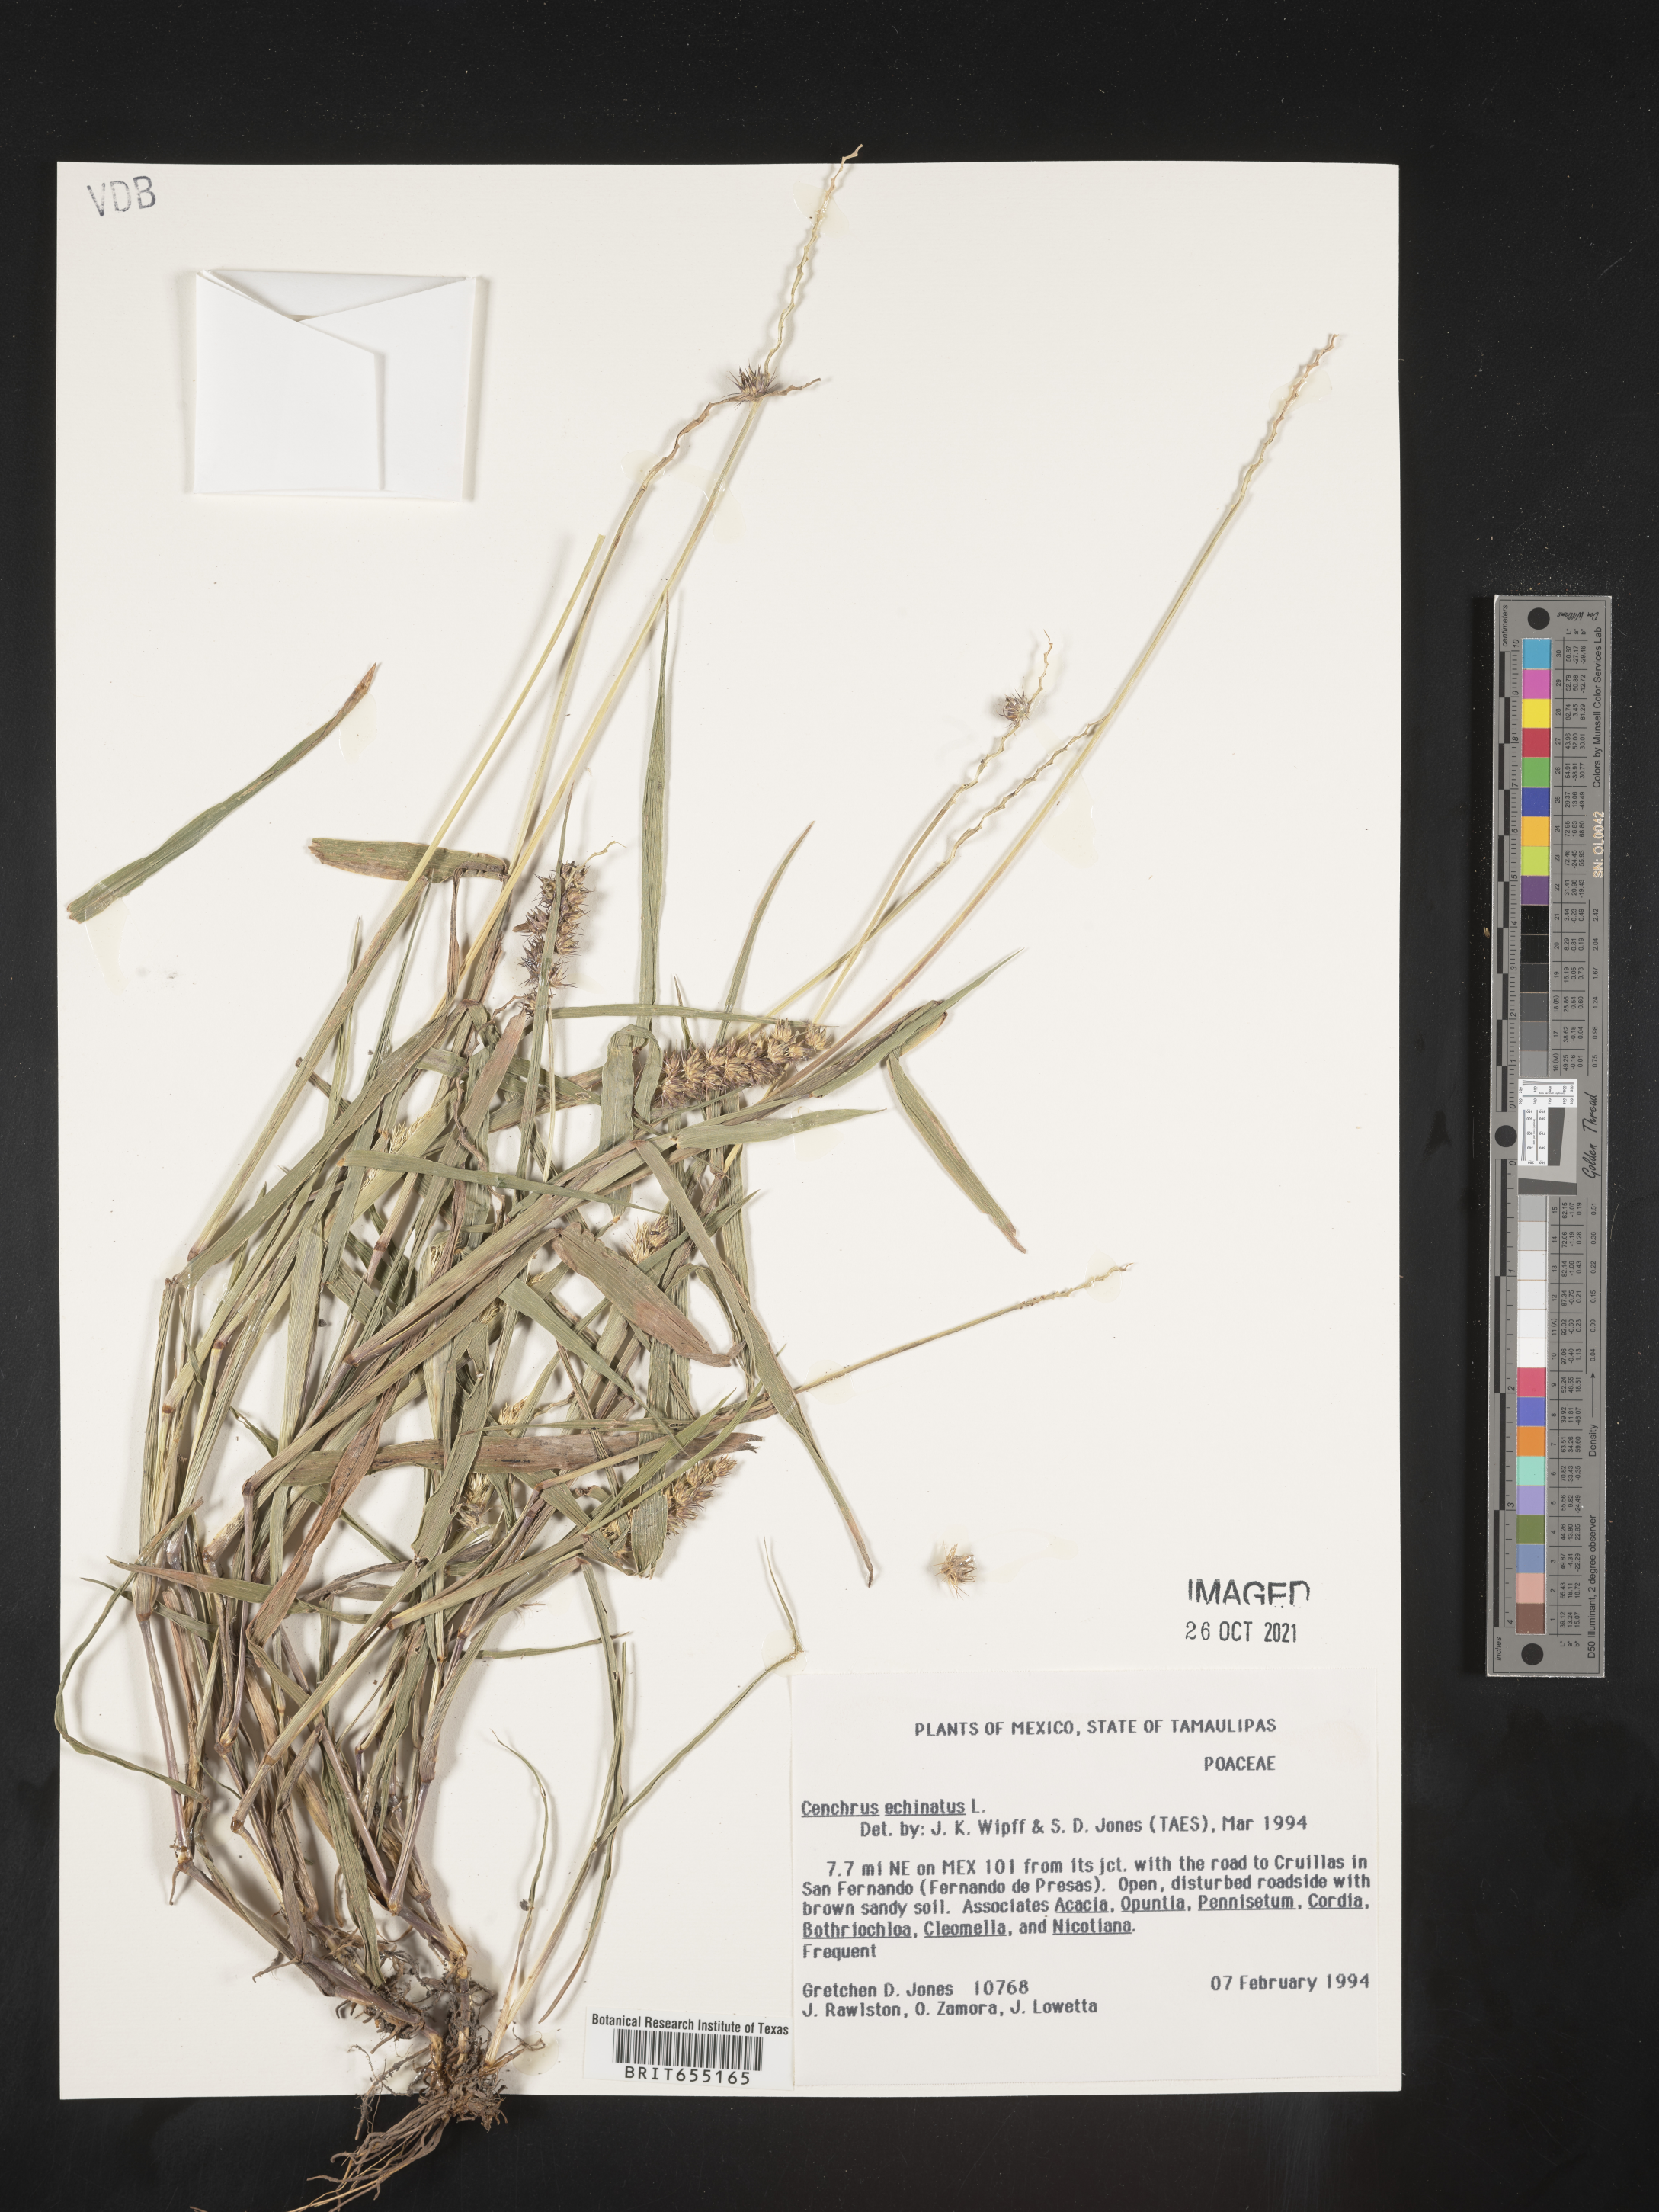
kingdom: Plantae
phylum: Tracheophyta
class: Liliopsida
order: Poales
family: Poaceae
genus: Cenchrus
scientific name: Cenchrus
